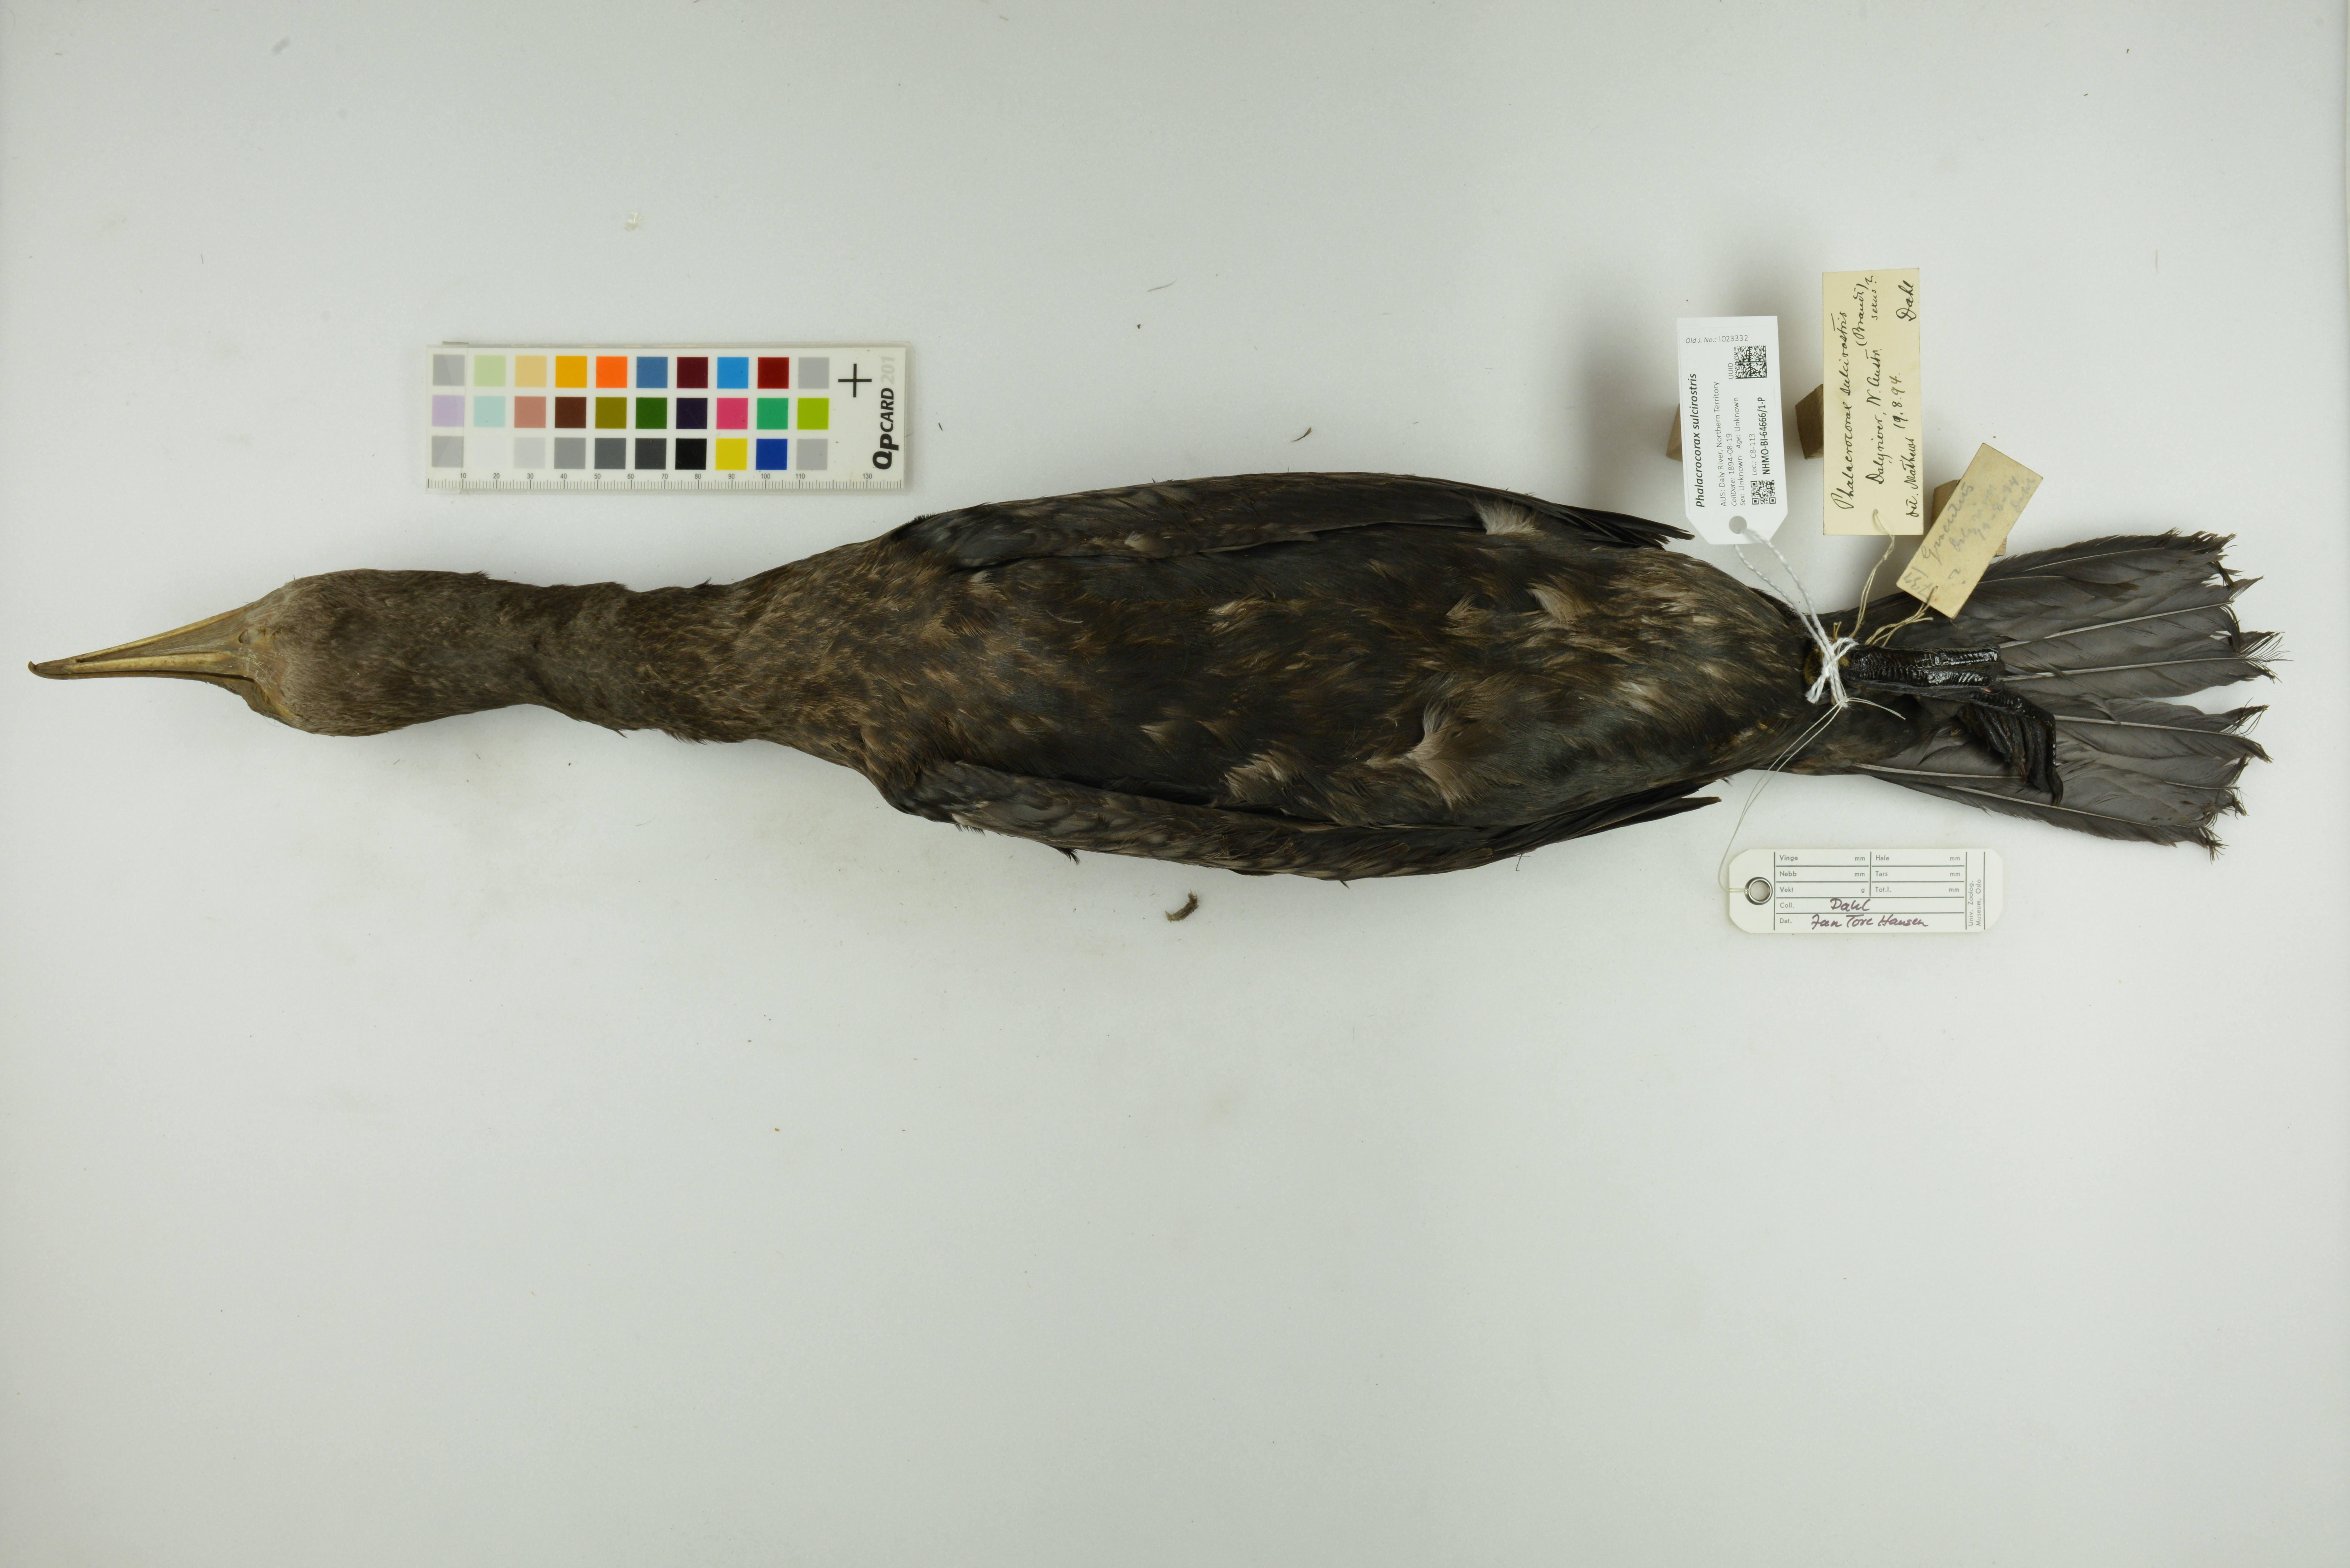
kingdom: Animalia
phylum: Chordata
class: Aves
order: Suliformes
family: Phalacrocoracidae
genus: Phalacrocorax
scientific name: Phalacrocorax sulcirostris
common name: Little black cormorant
